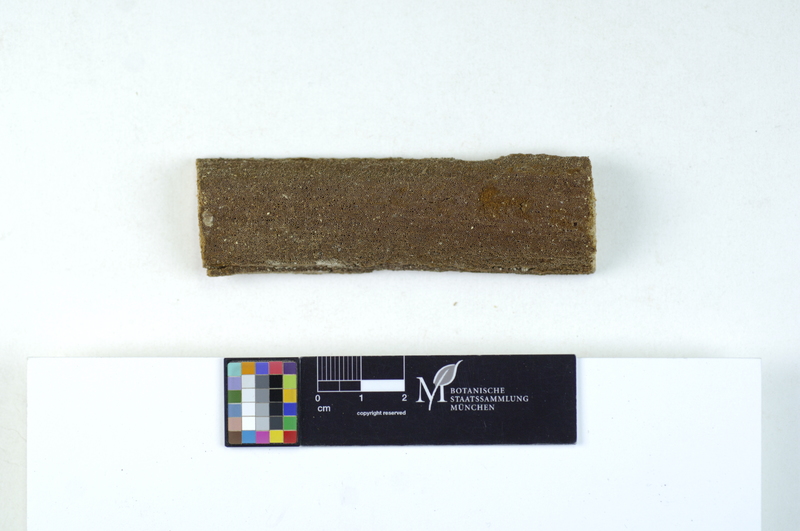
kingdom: Fungi
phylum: Basidiomycota
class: Agaricomycetes
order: Hymenochaetales
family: Hymenochaetaceae
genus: Fuscoporia
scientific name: Fuscoporia contigua
